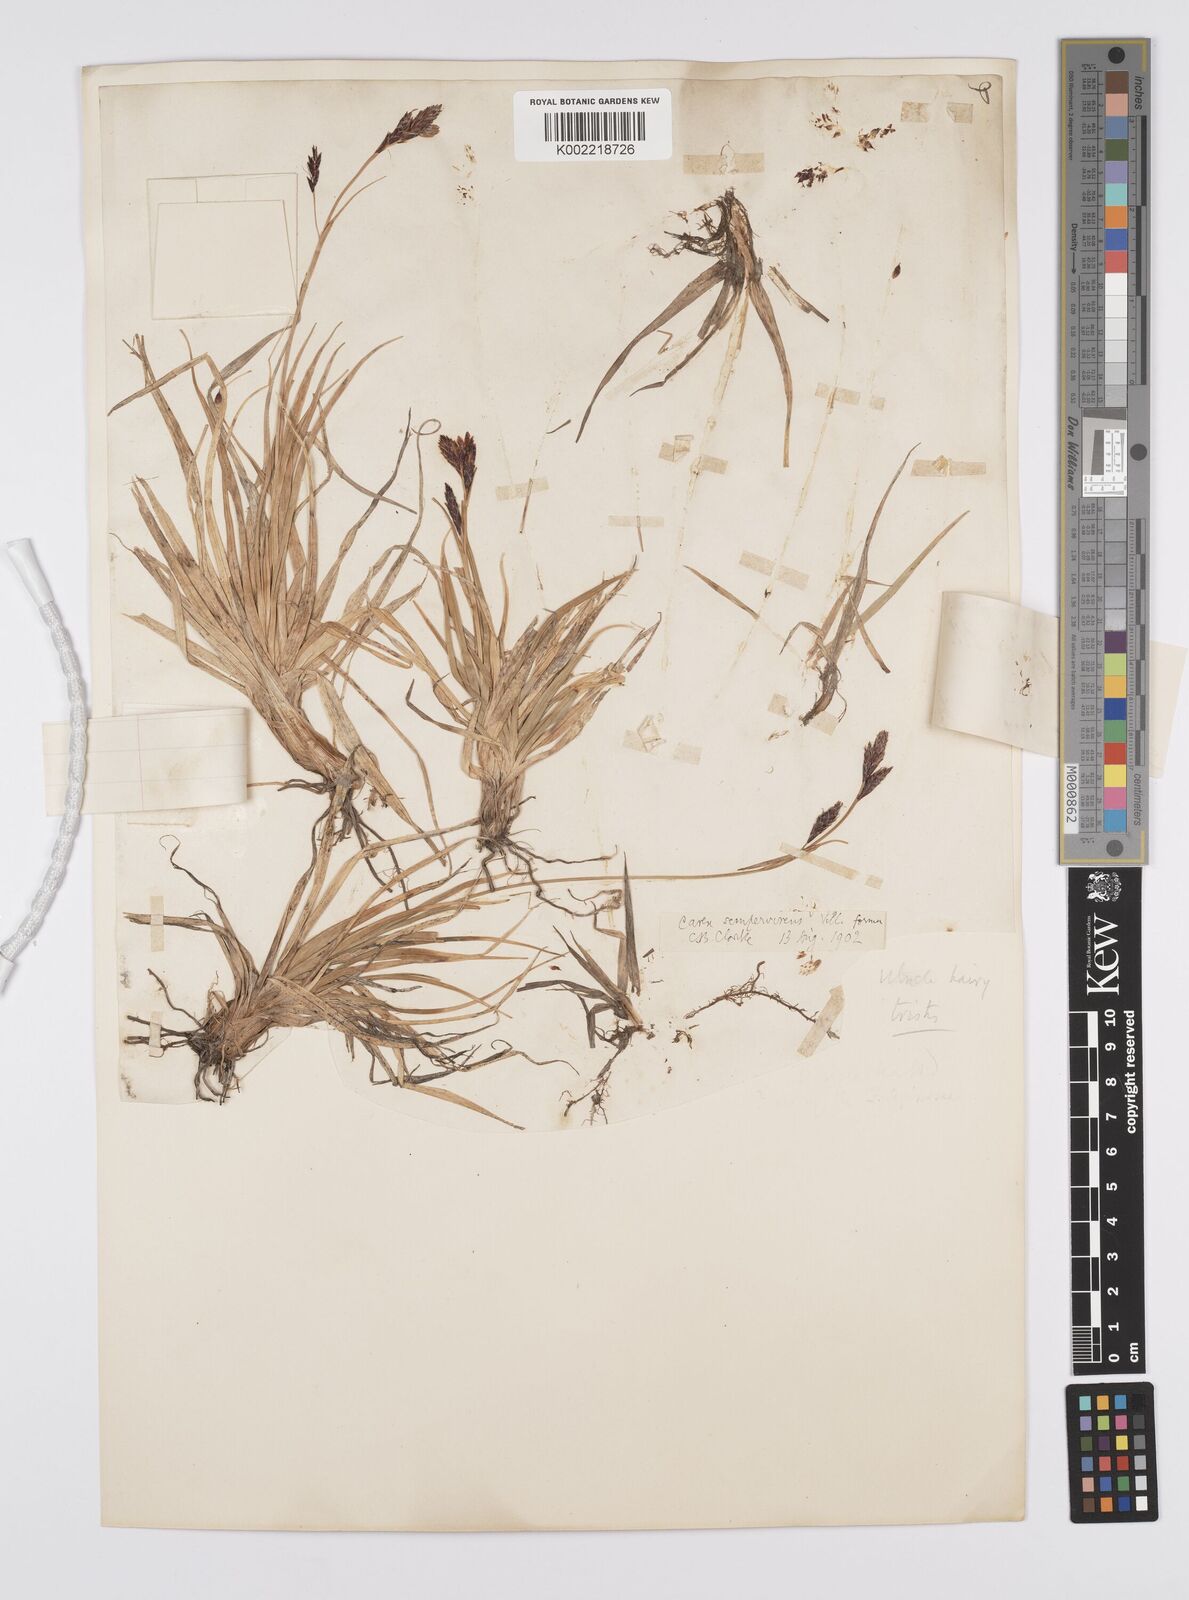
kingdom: Plantae
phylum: Tracheophyta
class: Liliopsida
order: Poales
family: Cyperaceae
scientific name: Cyperaceae
